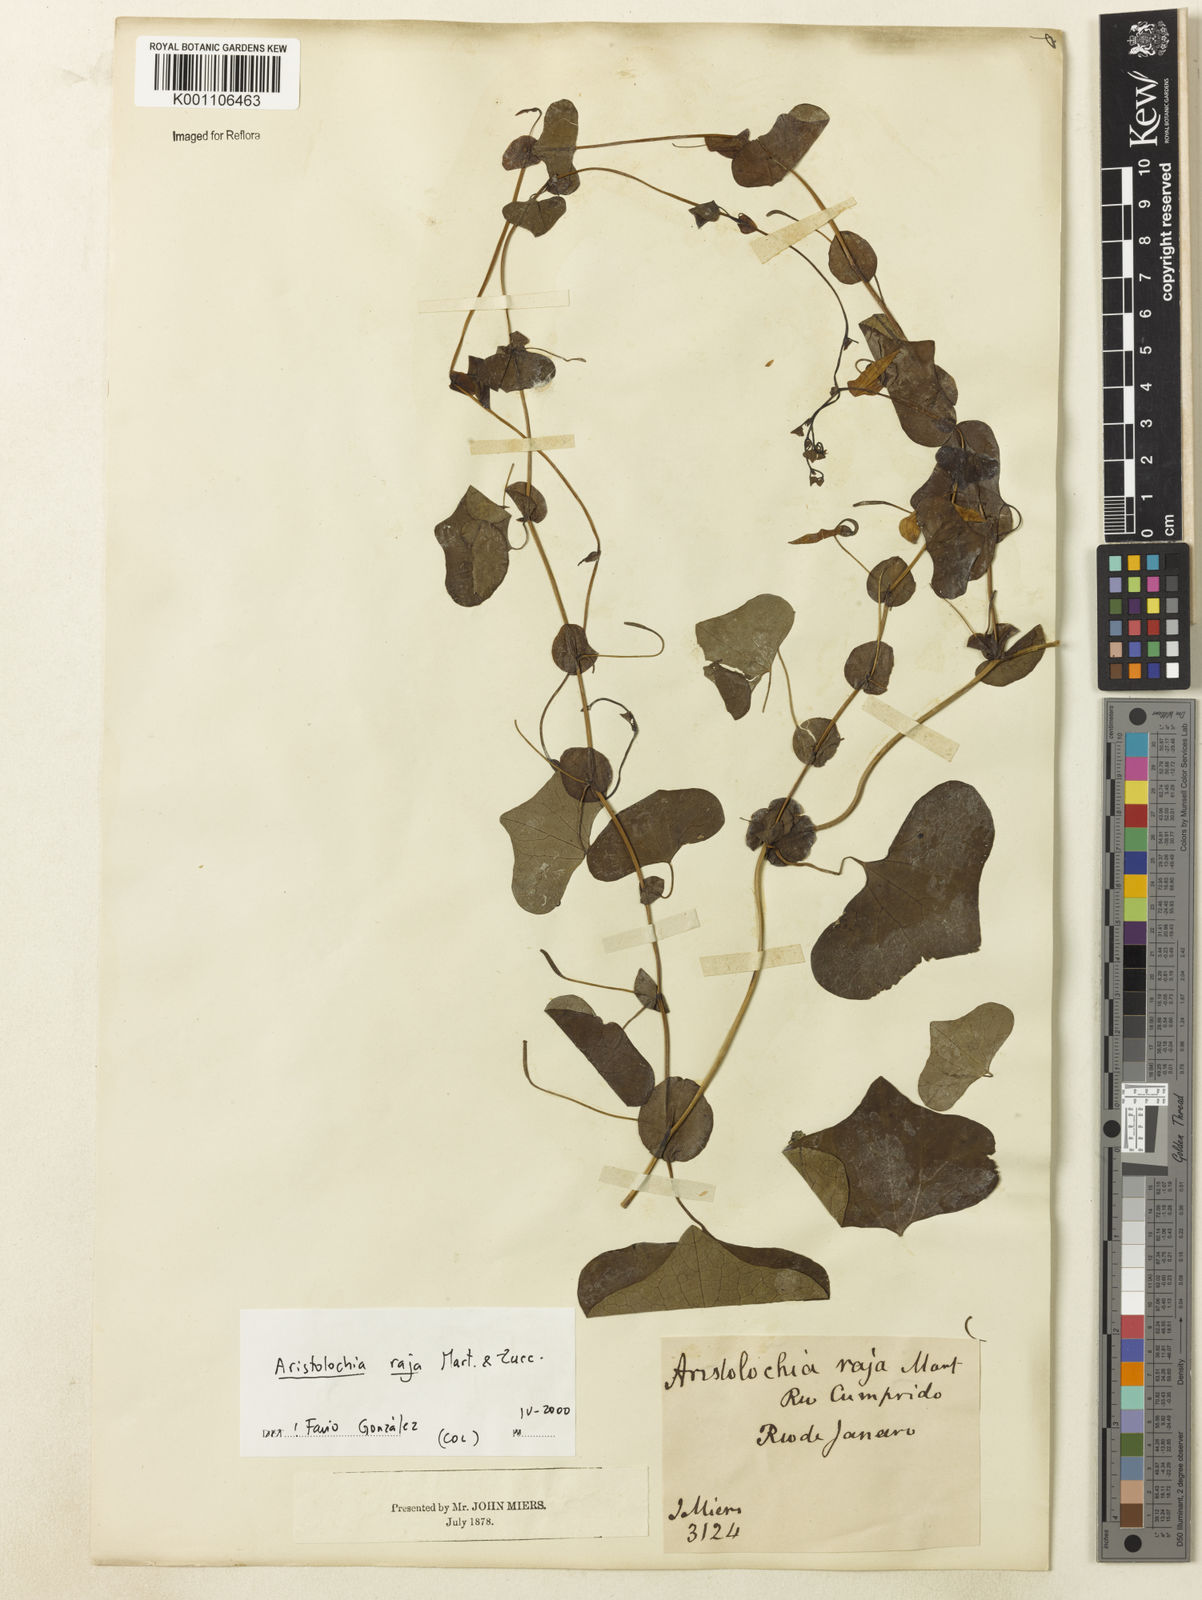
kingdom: Plantae
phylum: Tracheophyta
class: Magnoliopsida
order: Piperales
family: Aristolochiaceae
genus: Aristolochia
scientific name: Aristolochia raja
